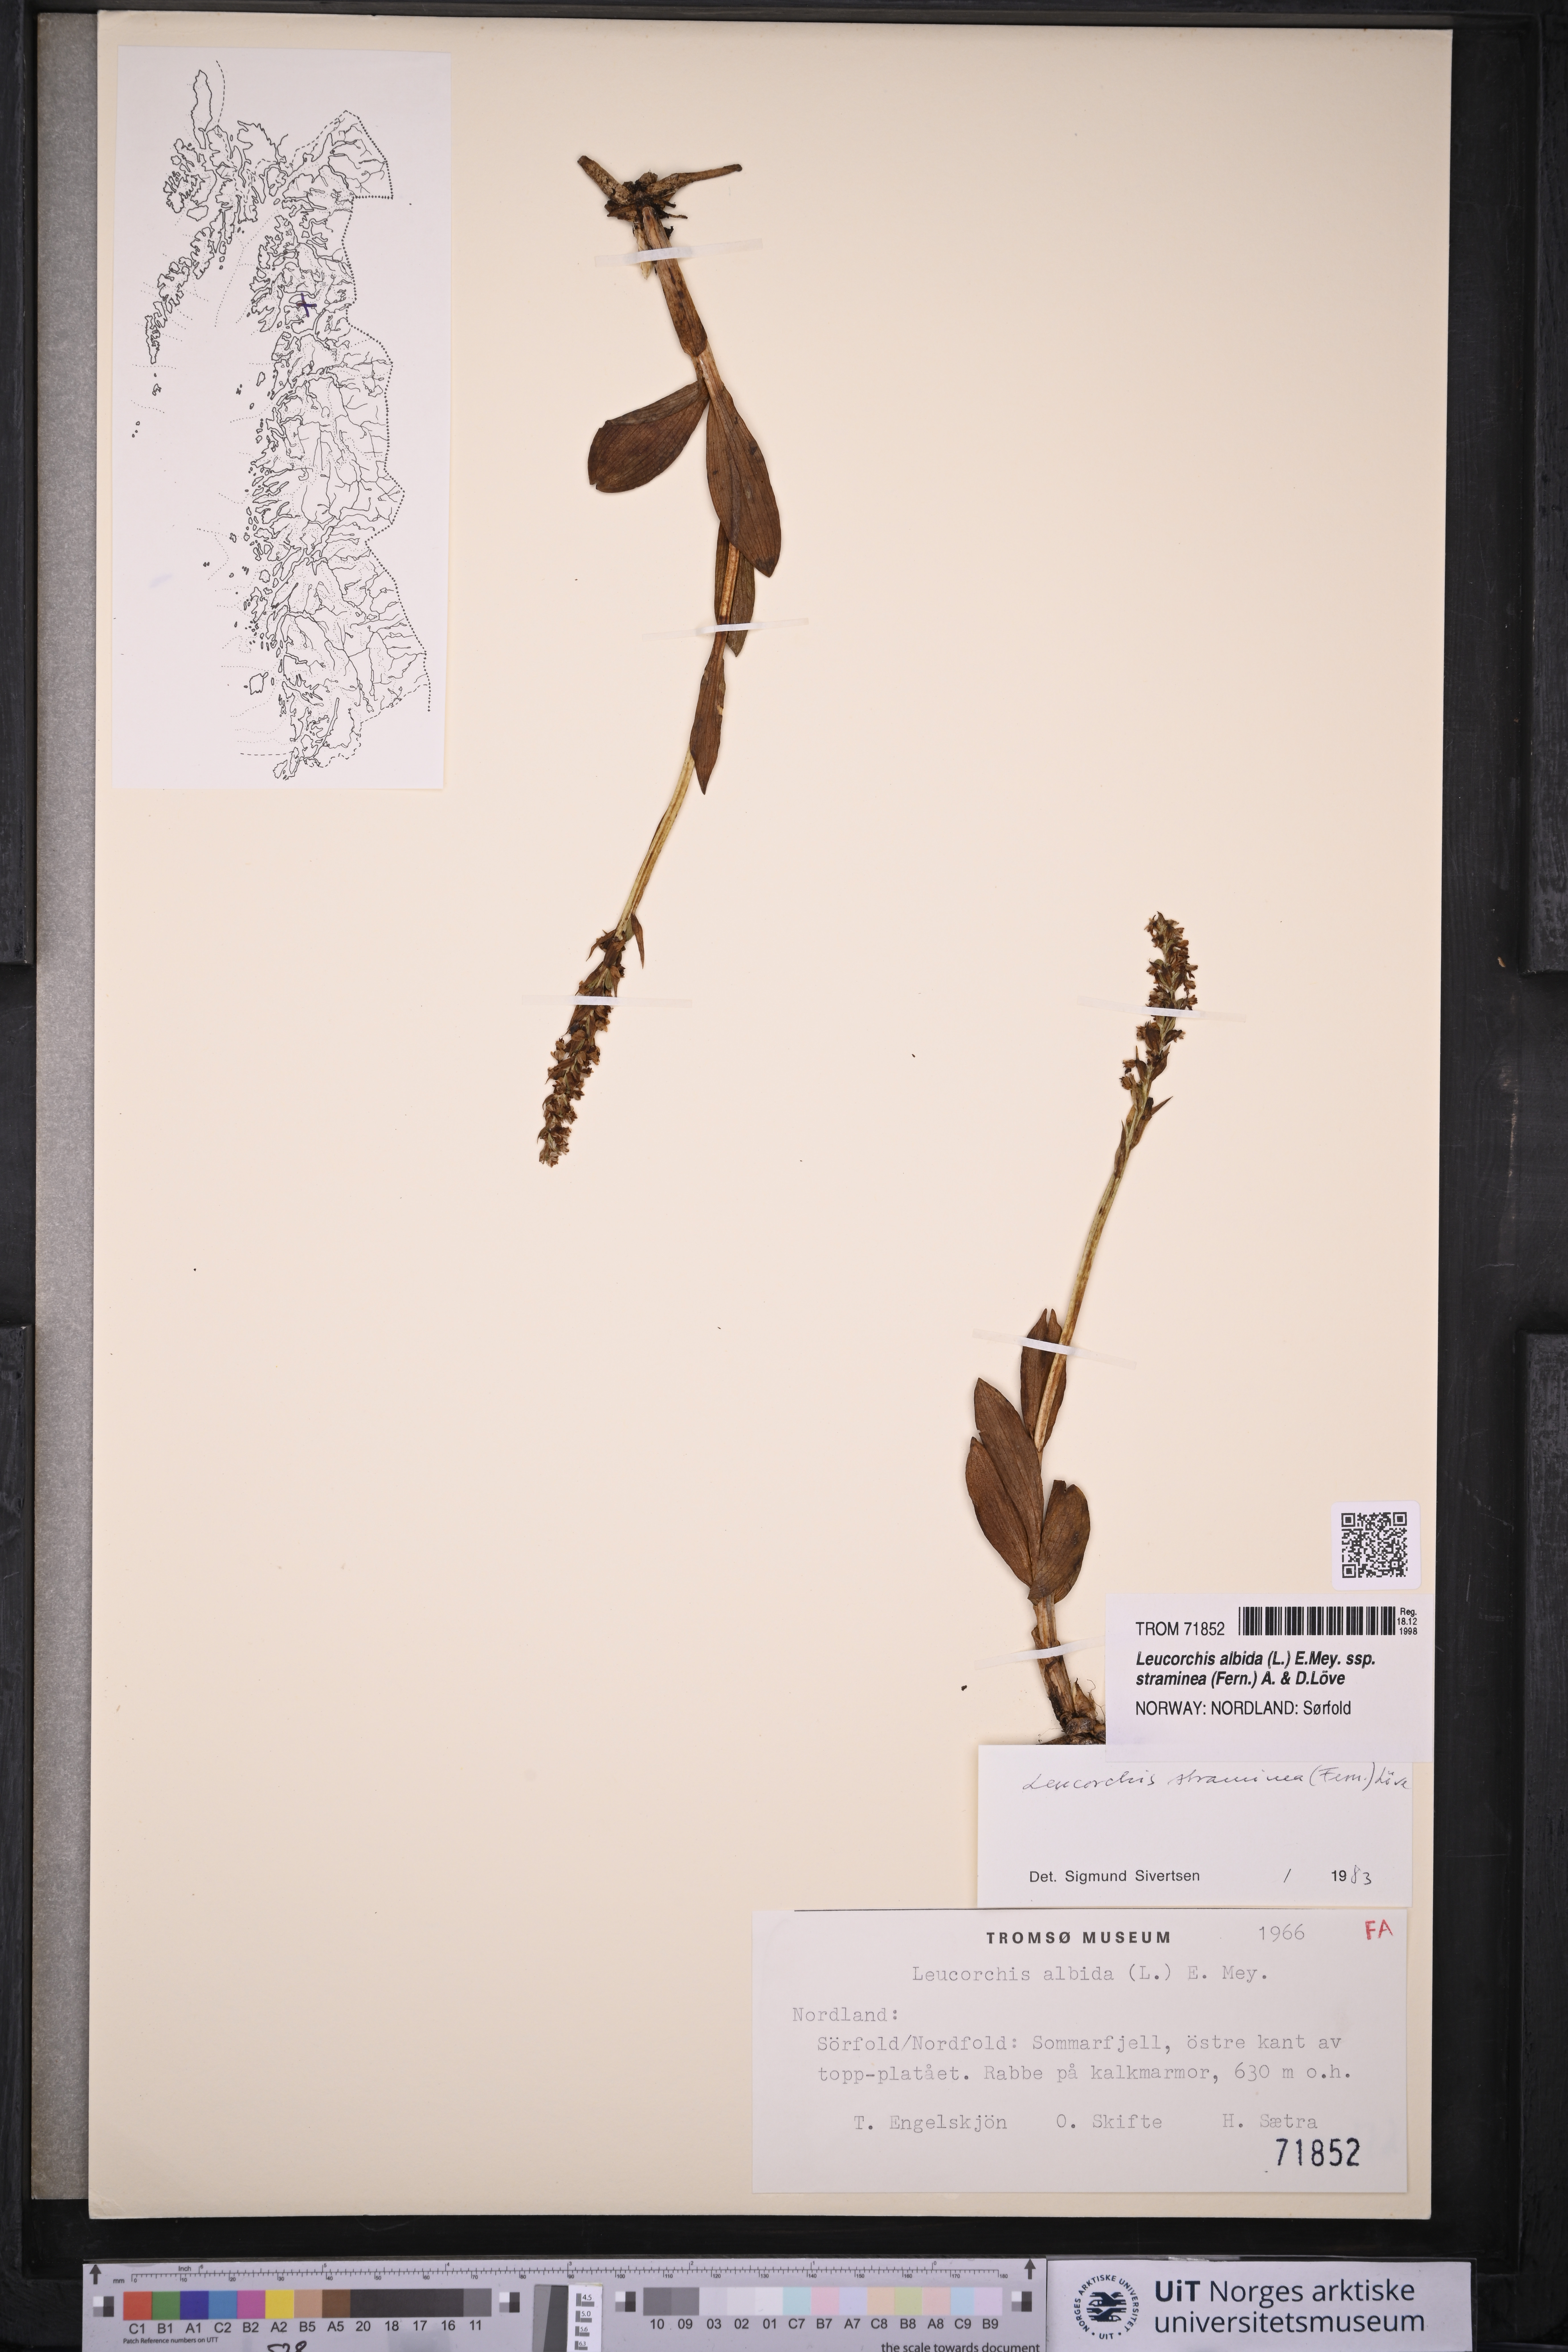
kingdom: Plantae
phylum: Tracheophyta
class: Liliopsida
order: Asparagales
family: Orchidaceae
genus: Pseudorchis
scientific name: Pseudorchis straminea
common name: Vanilla-scented bog orchid
